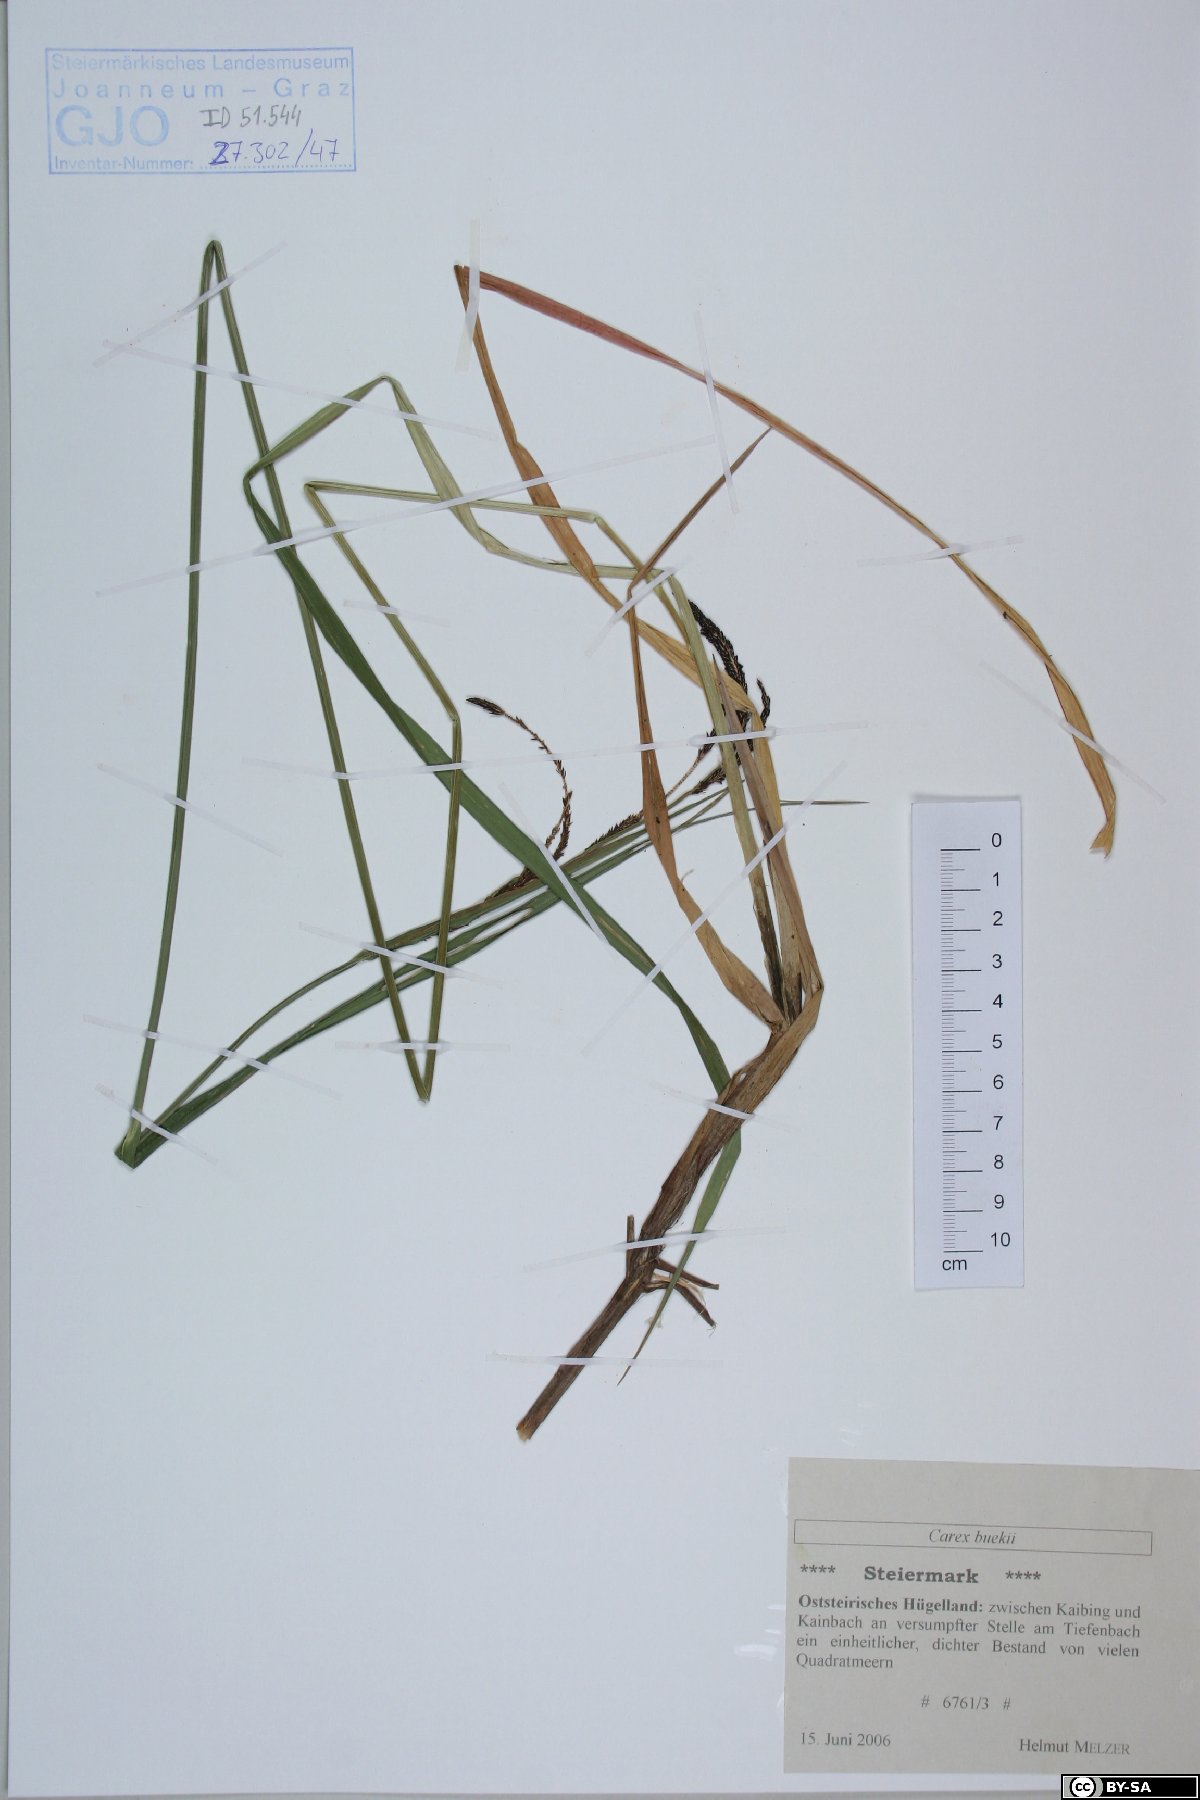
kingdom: Plantae
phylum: Tracheophyta
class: Liliopsida
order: Poales
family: Cyperaceae
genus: Carex
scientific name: Carex buekii
